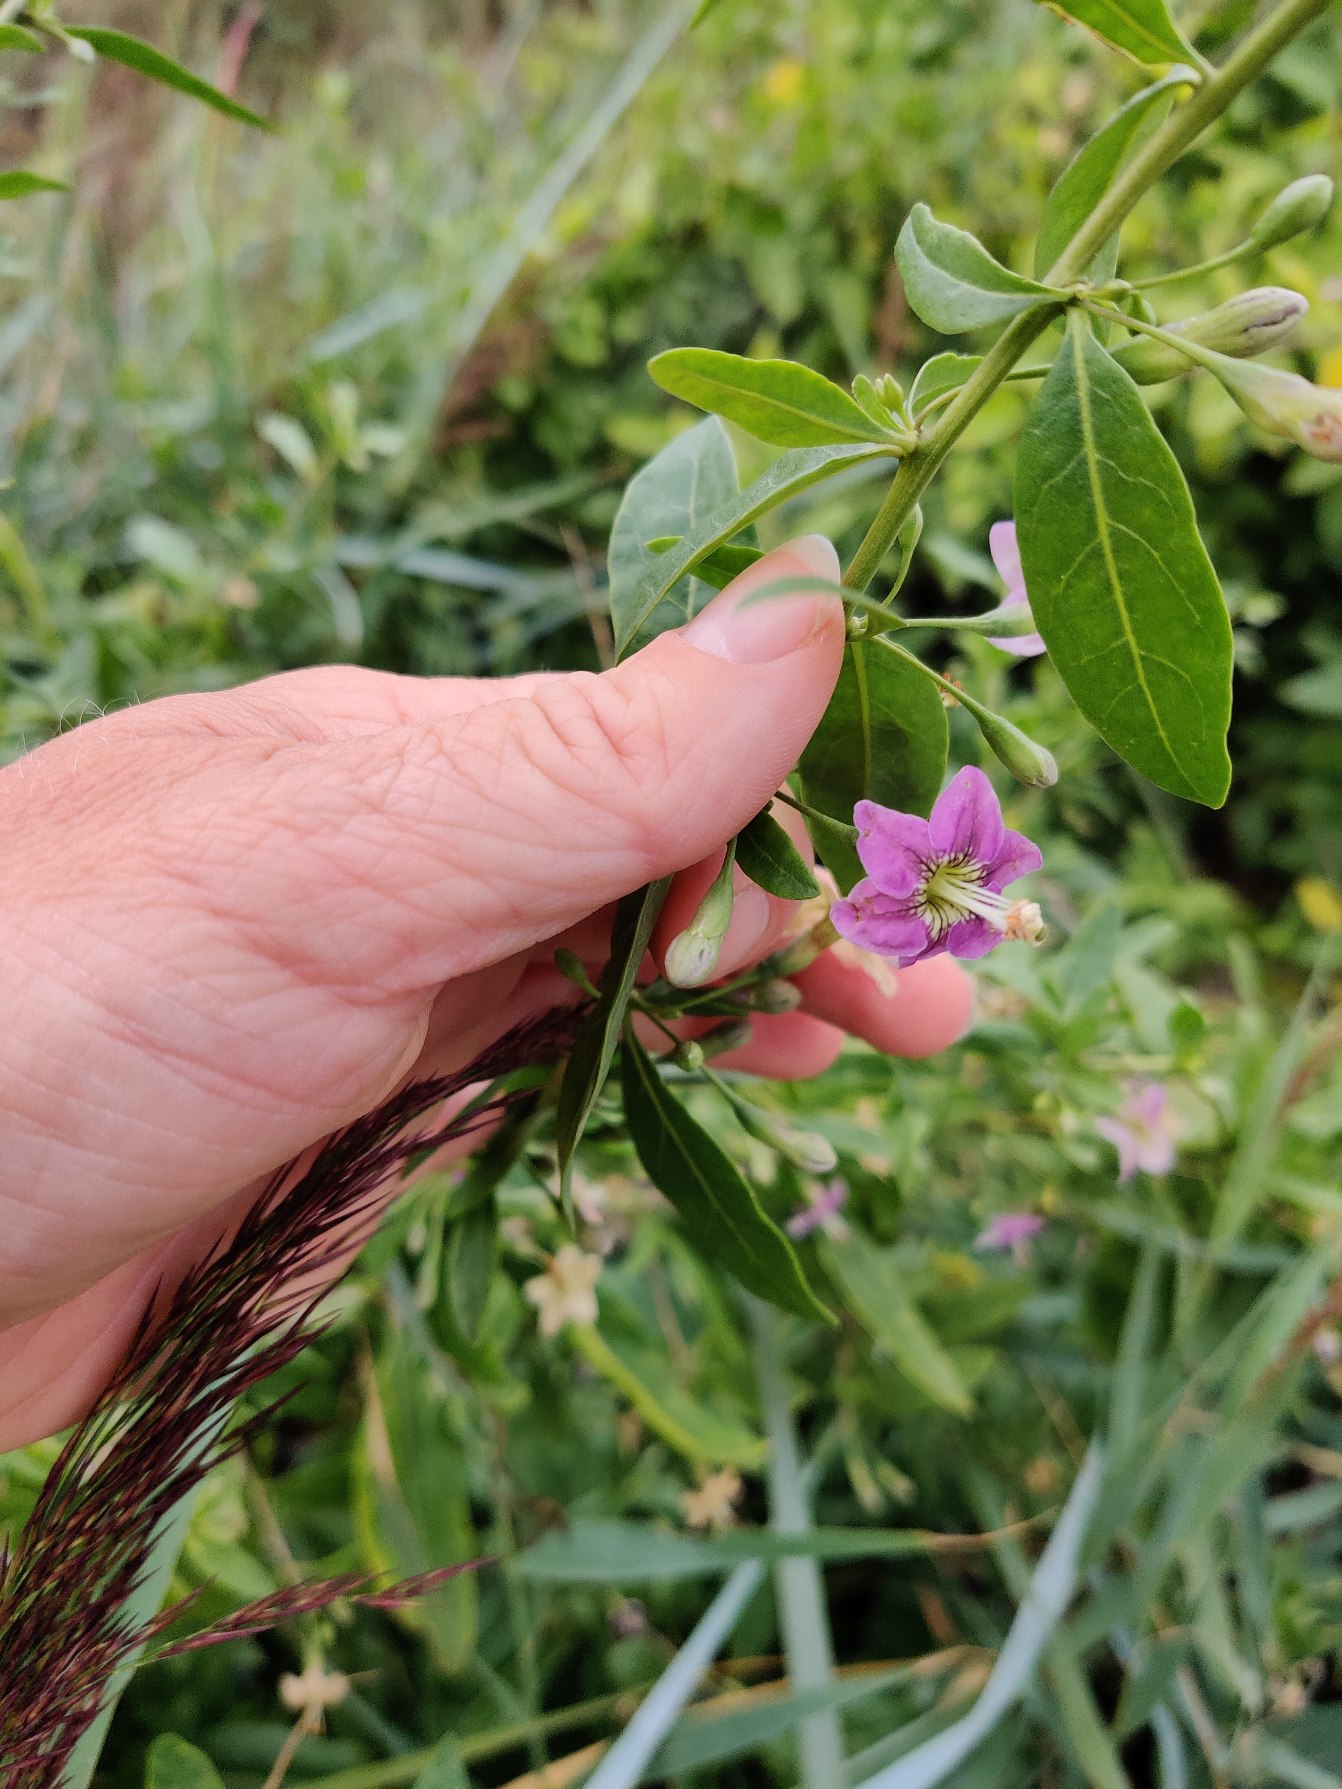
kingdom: Plantae
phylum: Tracheophyta
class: Magnoliopsida
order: Solanales
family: Solanaceae
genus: Lycium
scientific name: Lycium barbarum
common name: Bukketorn
